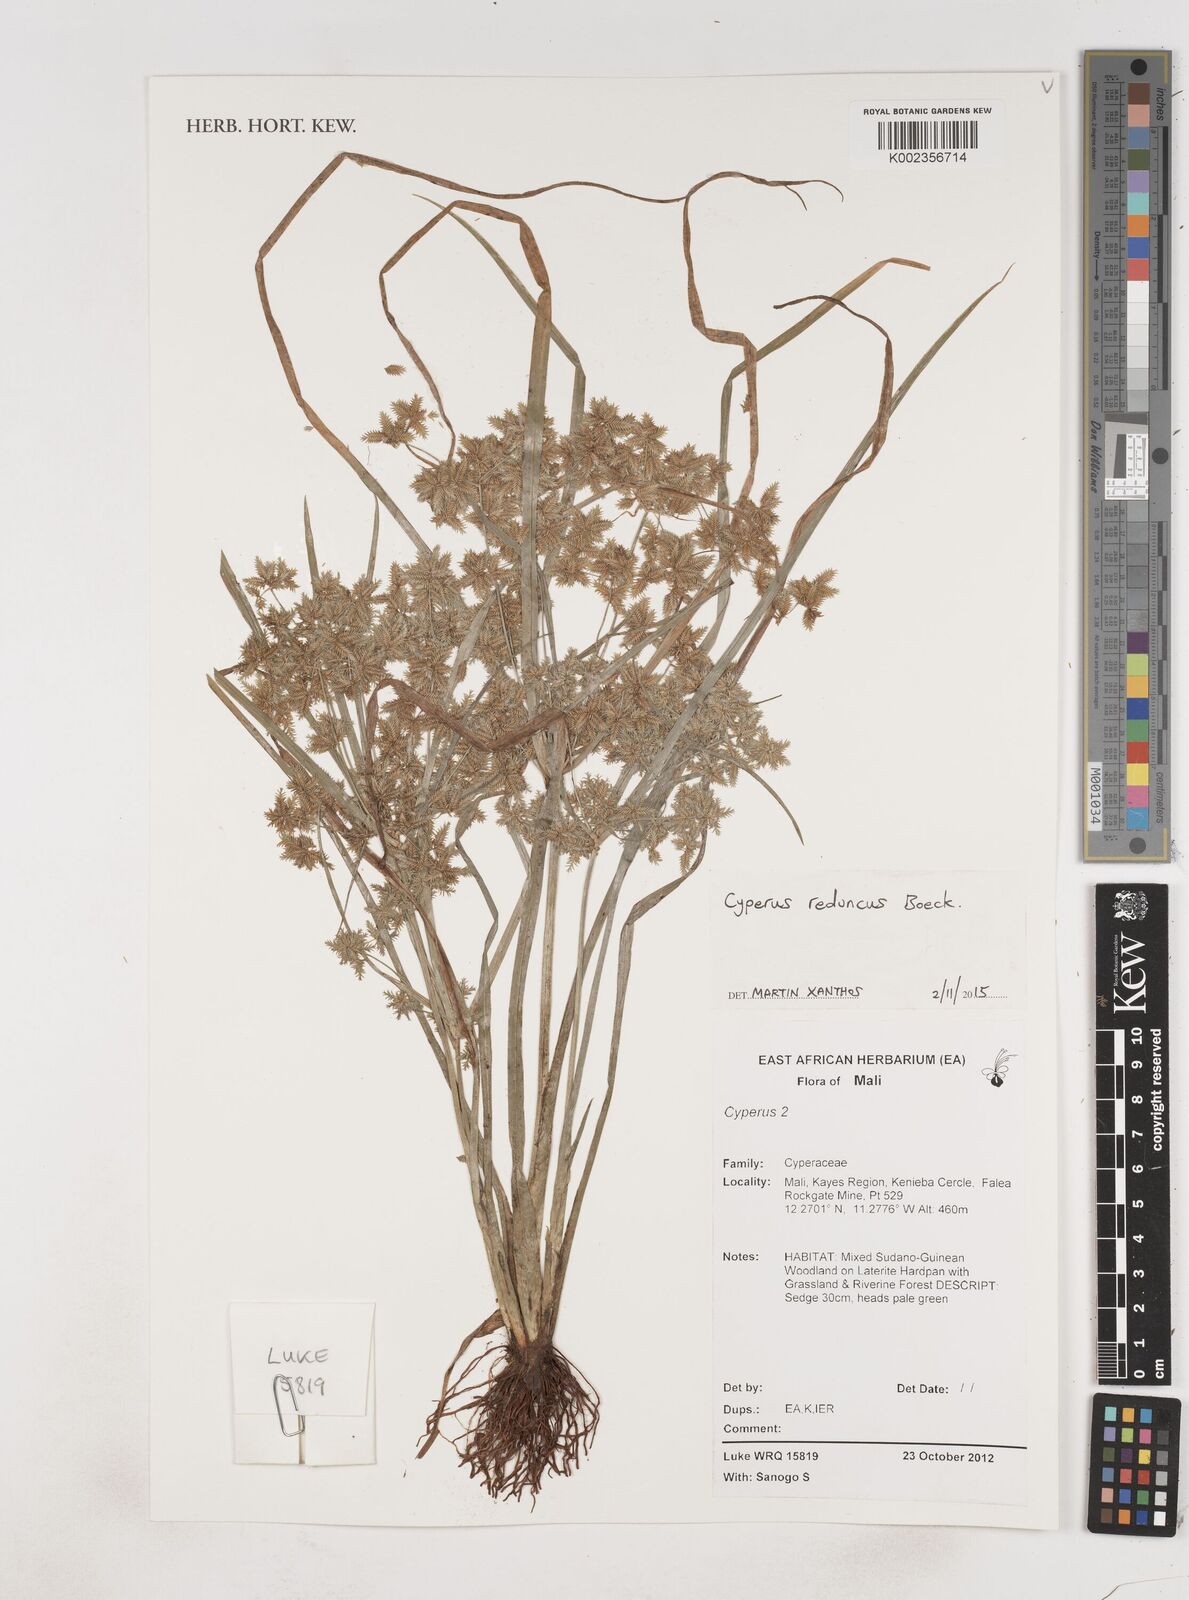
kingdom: Plantae
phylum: Tracheophyta
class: Liliopsida
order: Poales
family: Cyperaceae
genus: Cyperus
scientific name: Cyperus reduncus
